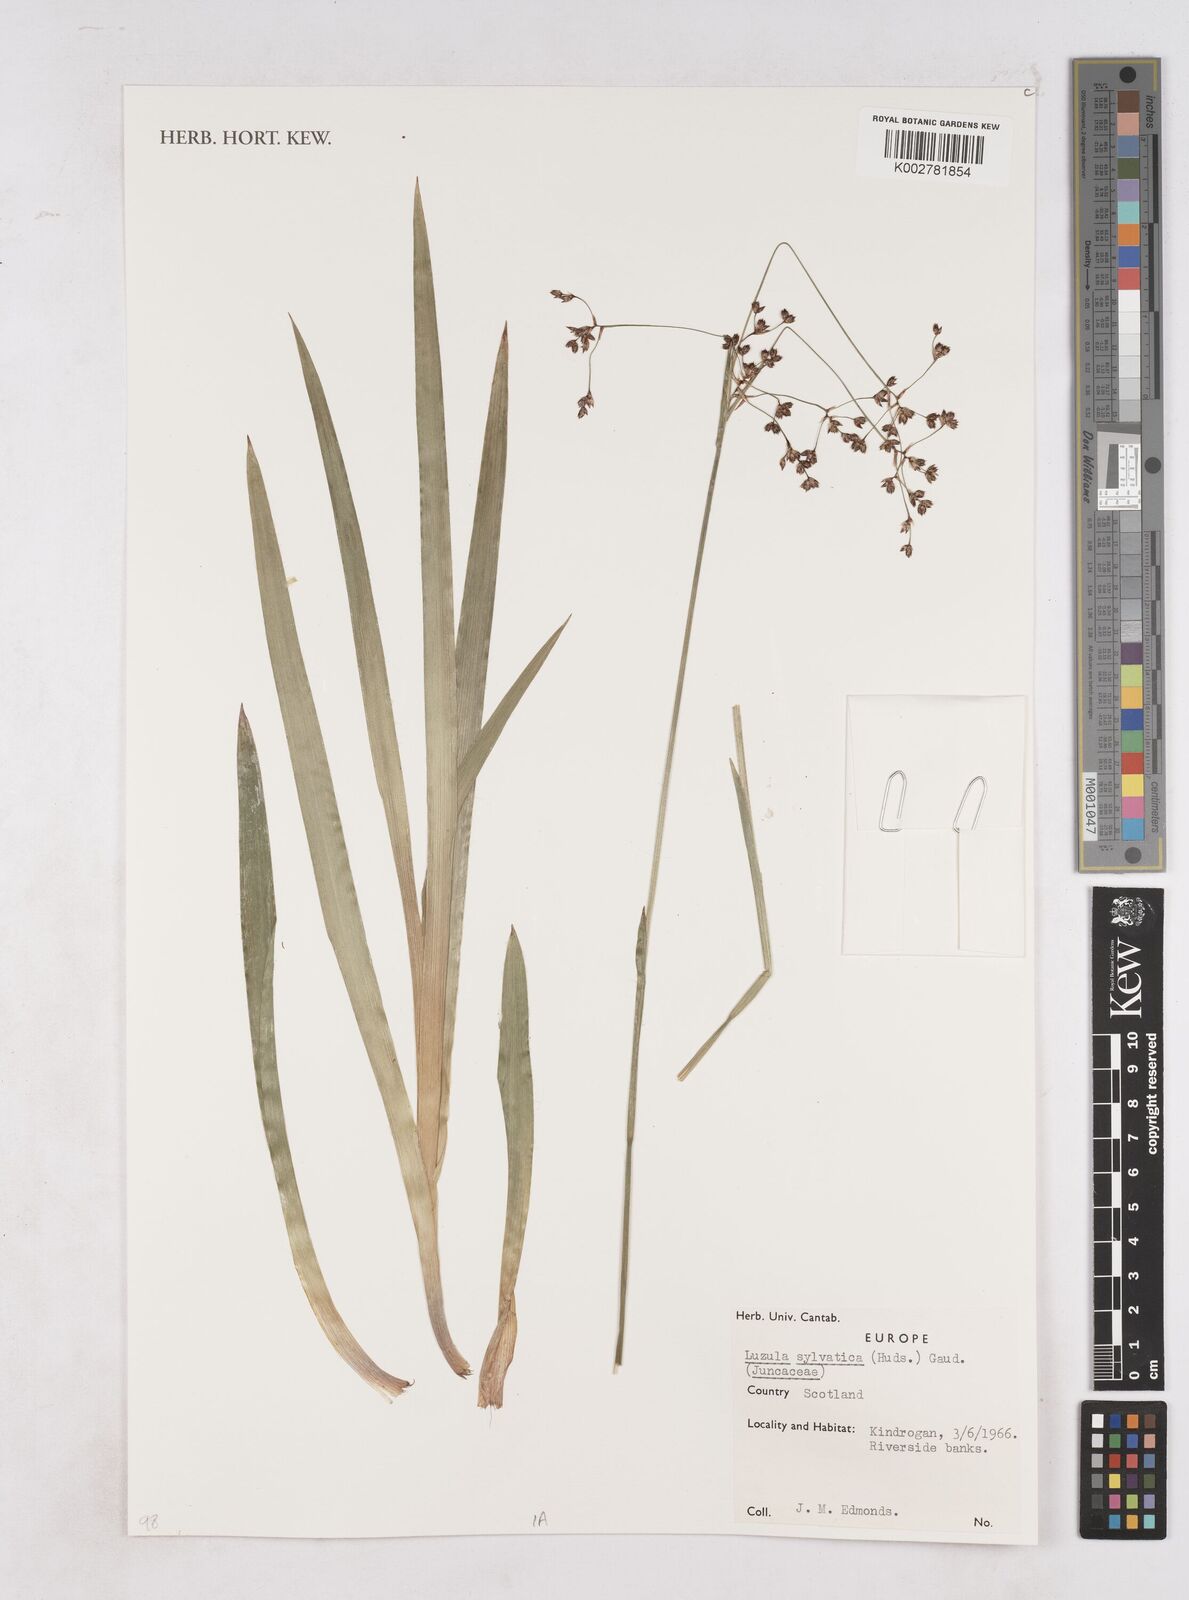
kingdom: Plantae
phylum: Tracheophyta
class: Liliopsida
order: Poales
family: Juncaceae
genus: Luzula
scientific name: Luzula sylvatica
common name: Great wood-rush
